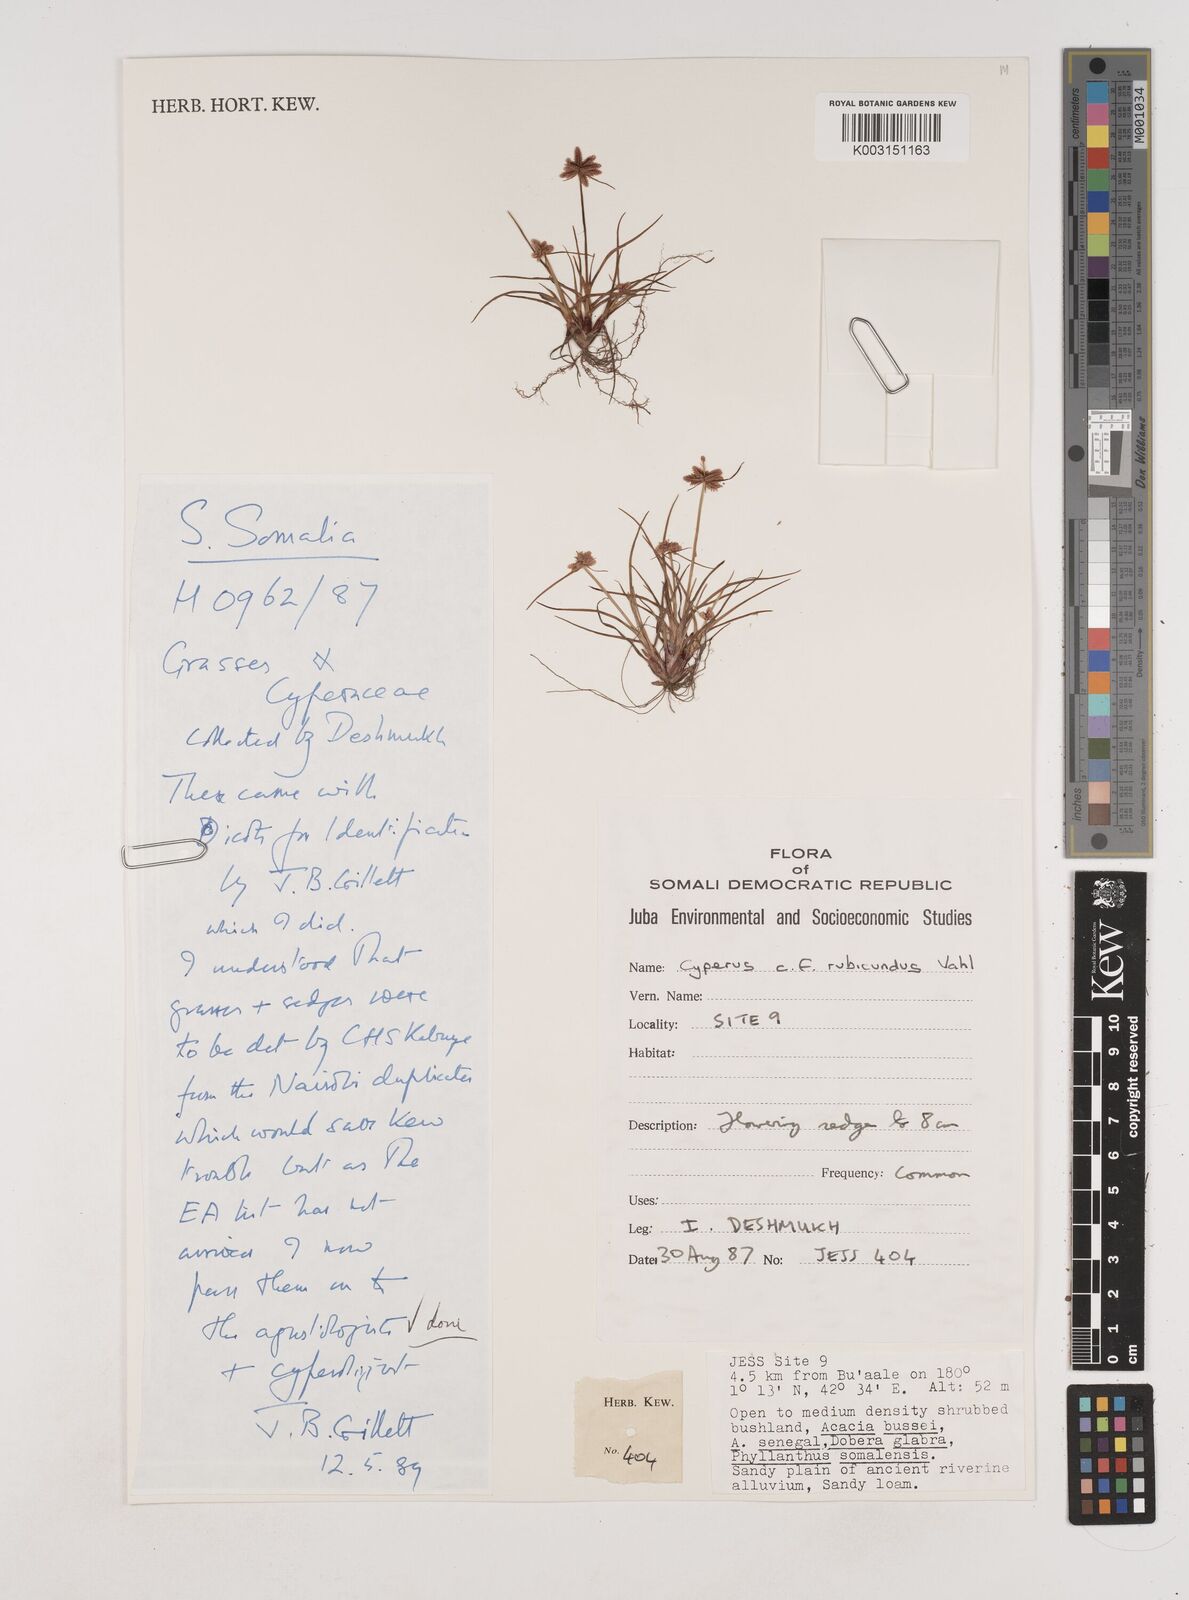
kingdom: Plantae
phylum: Tracheophyta
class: Liliopsida
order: Poales
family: Cyperaceae
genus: Cyperus
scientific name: Cyperus rubicundus
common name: Coco-grass
